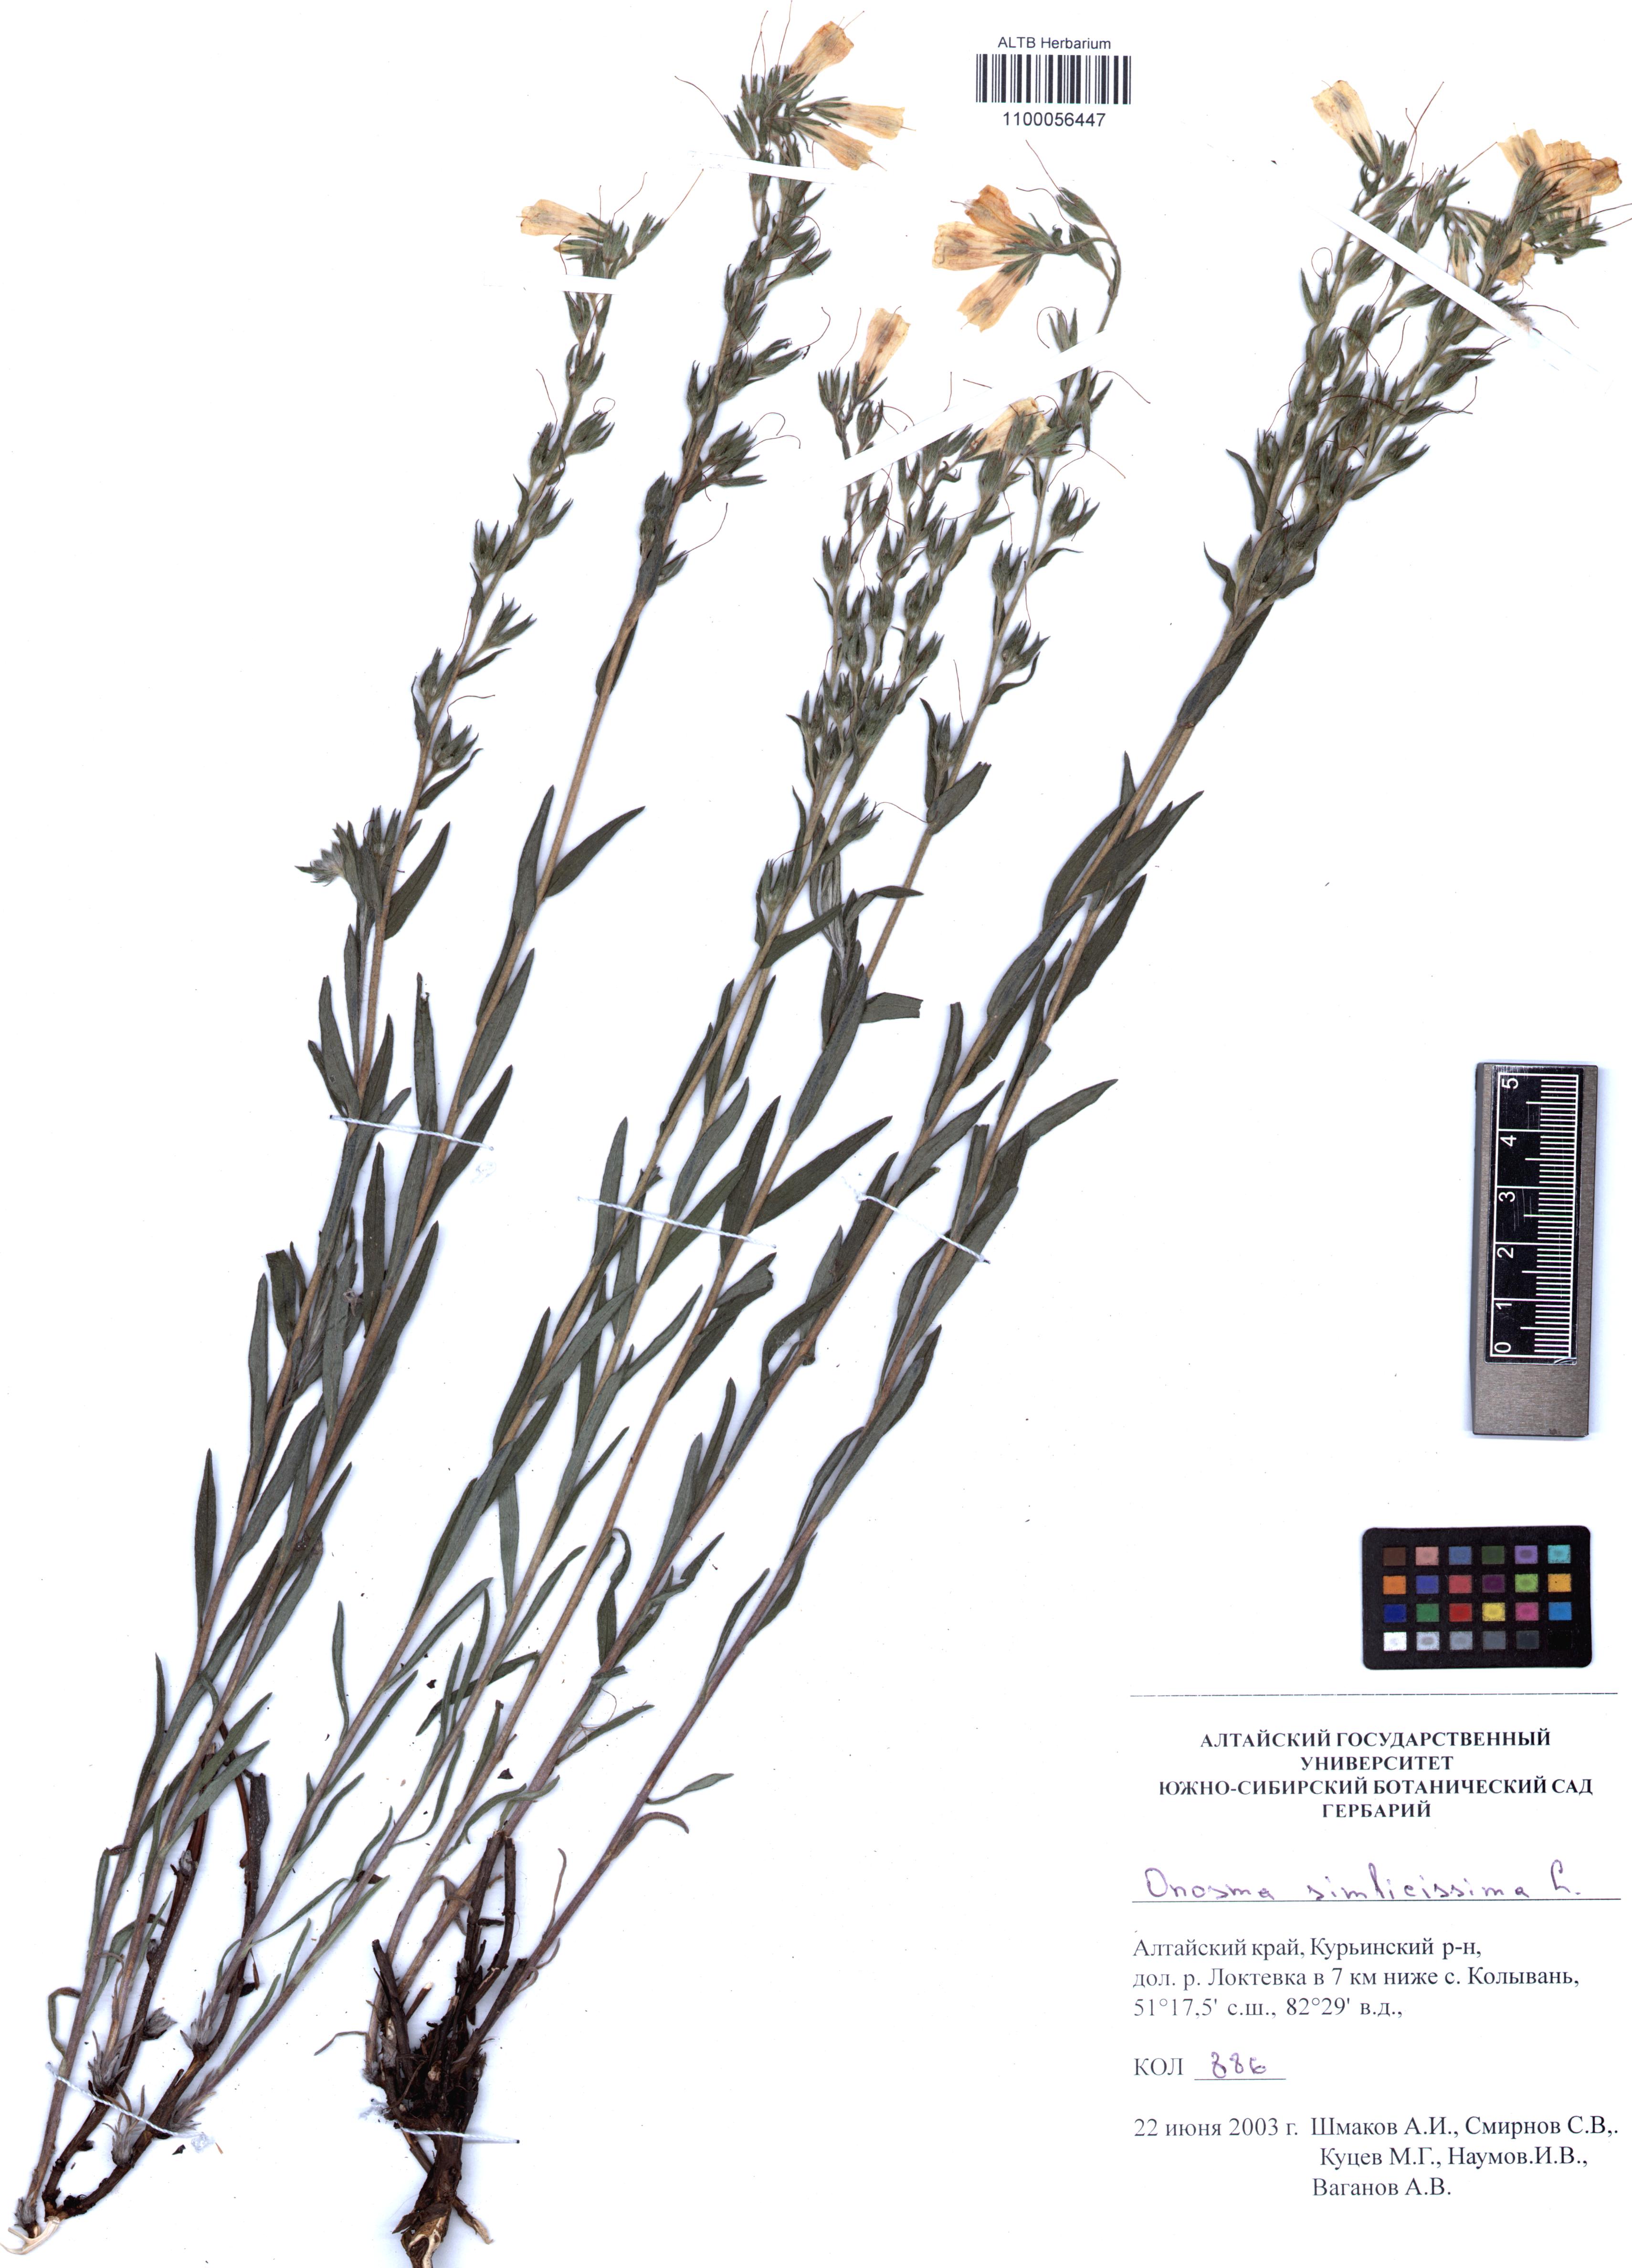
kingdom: Plantae
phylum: Tracheophyta
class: Magnoliopsida
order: Boraginales
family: Boraginaceae
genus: Onosma
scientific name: Onosma simplicissima
